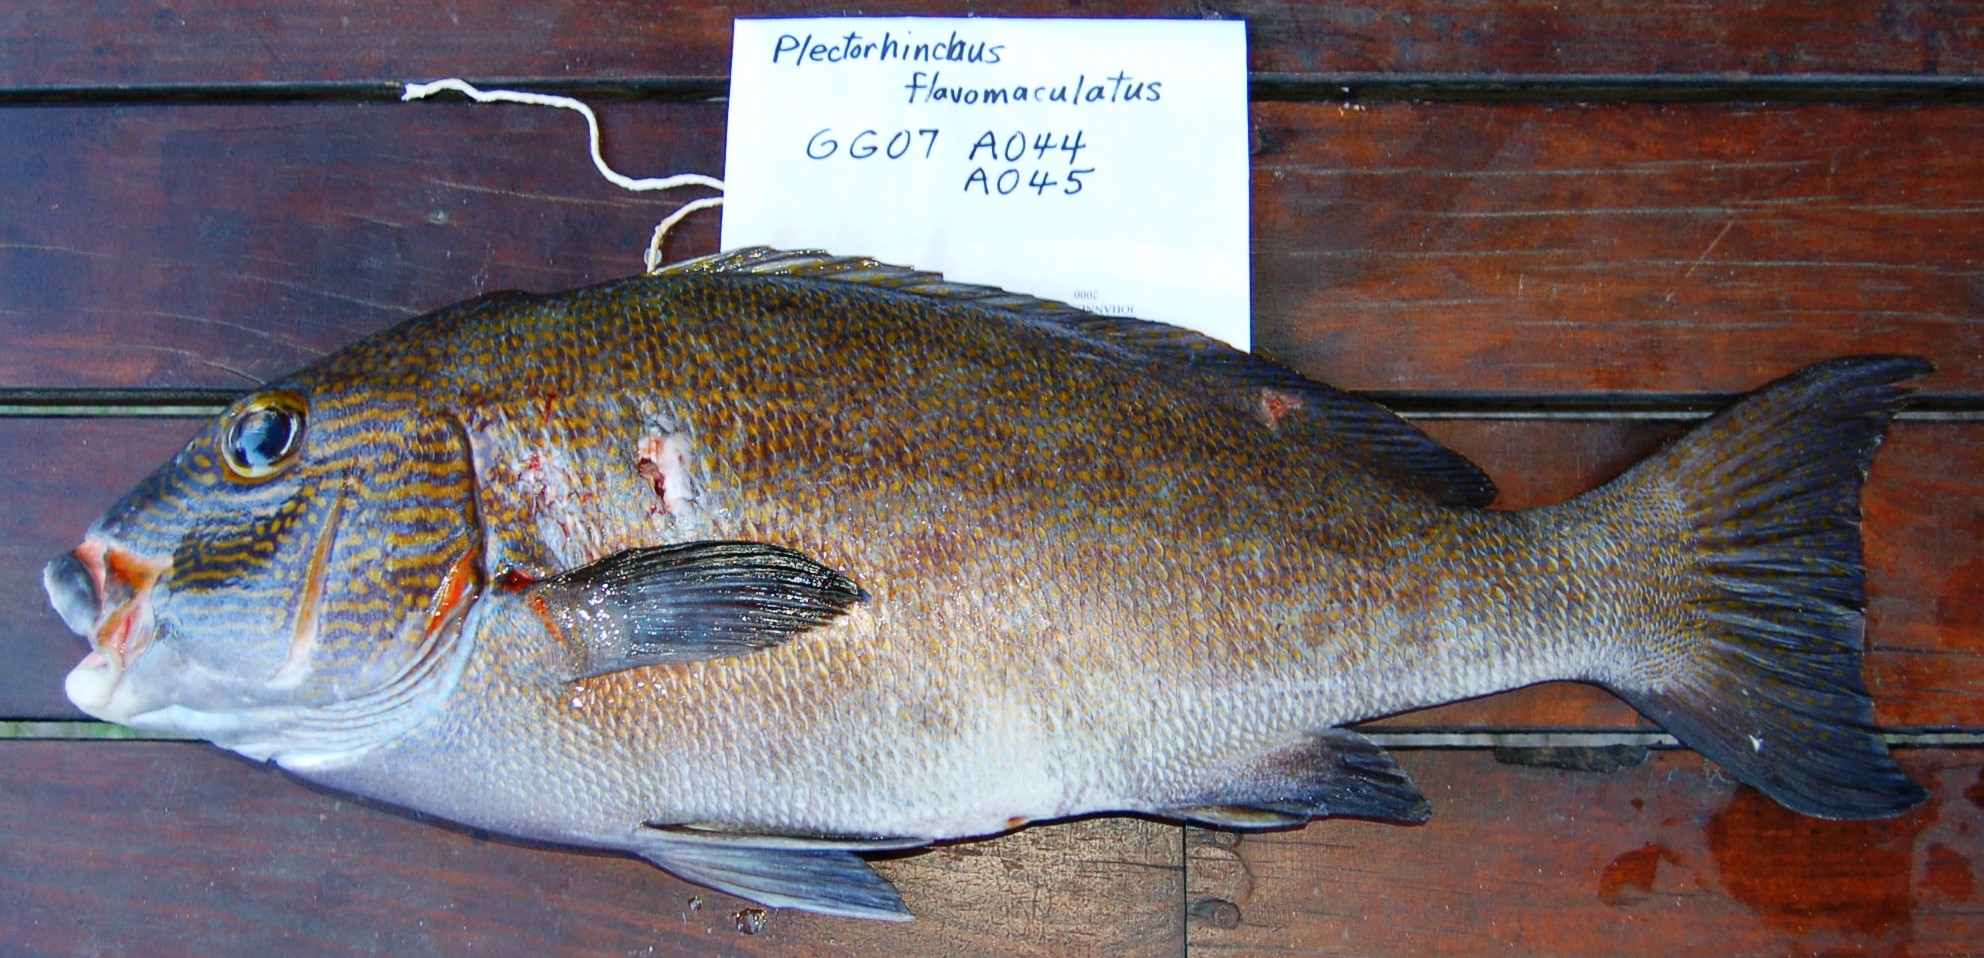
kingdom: Animalia
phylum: Chordata
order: Perciformes
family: Haemulidae
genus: Plectorhinchus
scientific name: Plectorhinchus flavomaculatus
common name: Netted sweetlips
